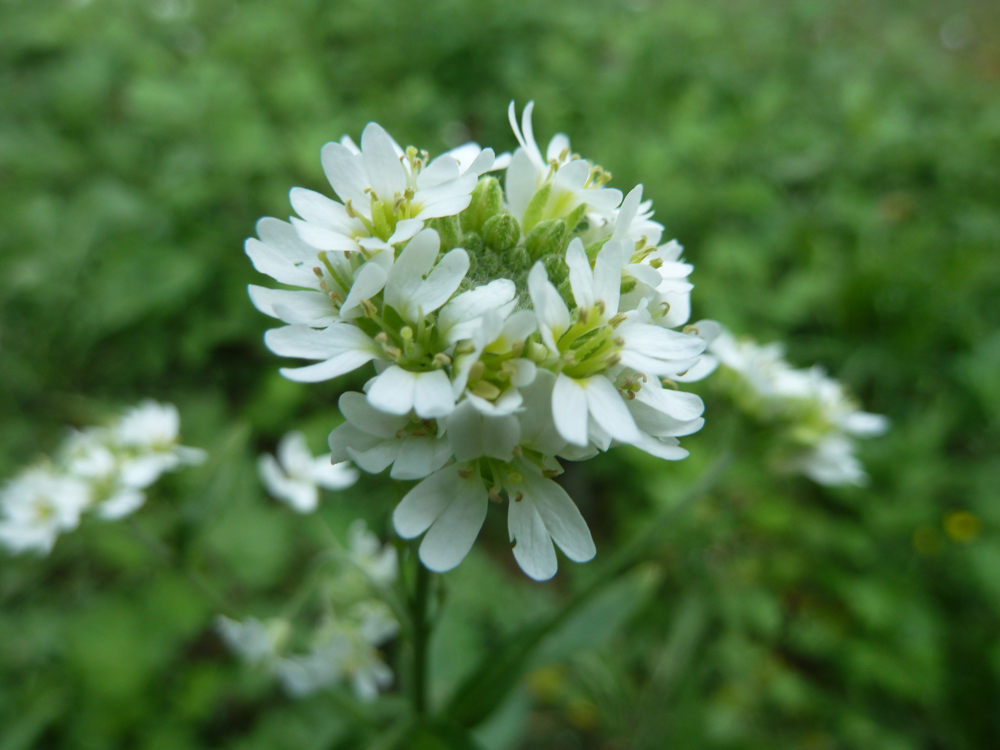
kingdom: Plantae
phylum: Tracheophyta
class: Magnoliopsida
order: Brassicales
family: Brassicaceae
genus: Berteroa
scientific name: Berteroa incana
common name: Hoary alison
